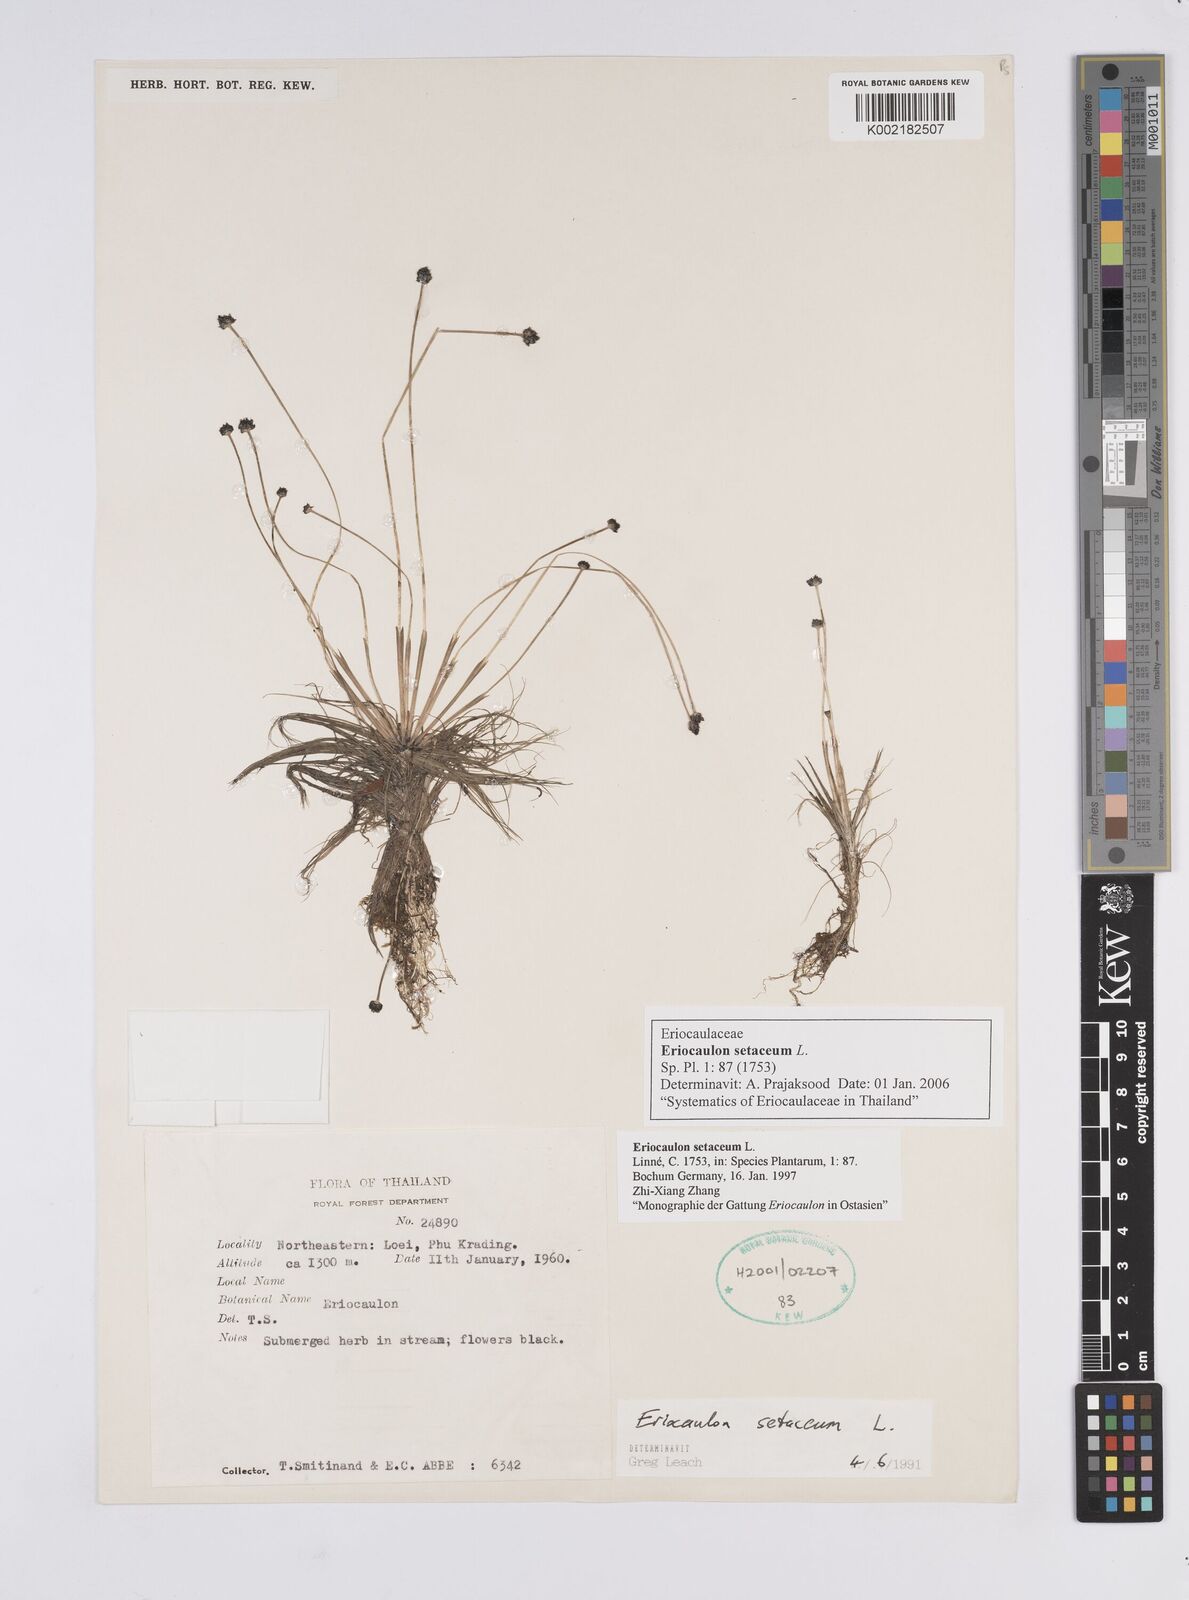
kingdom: Plantae
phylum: Tracheophyta
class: Liliopsida
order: Poales
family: Eriocaulaceae
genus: Eriocaulon
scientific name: Eriocaulon setaceum
